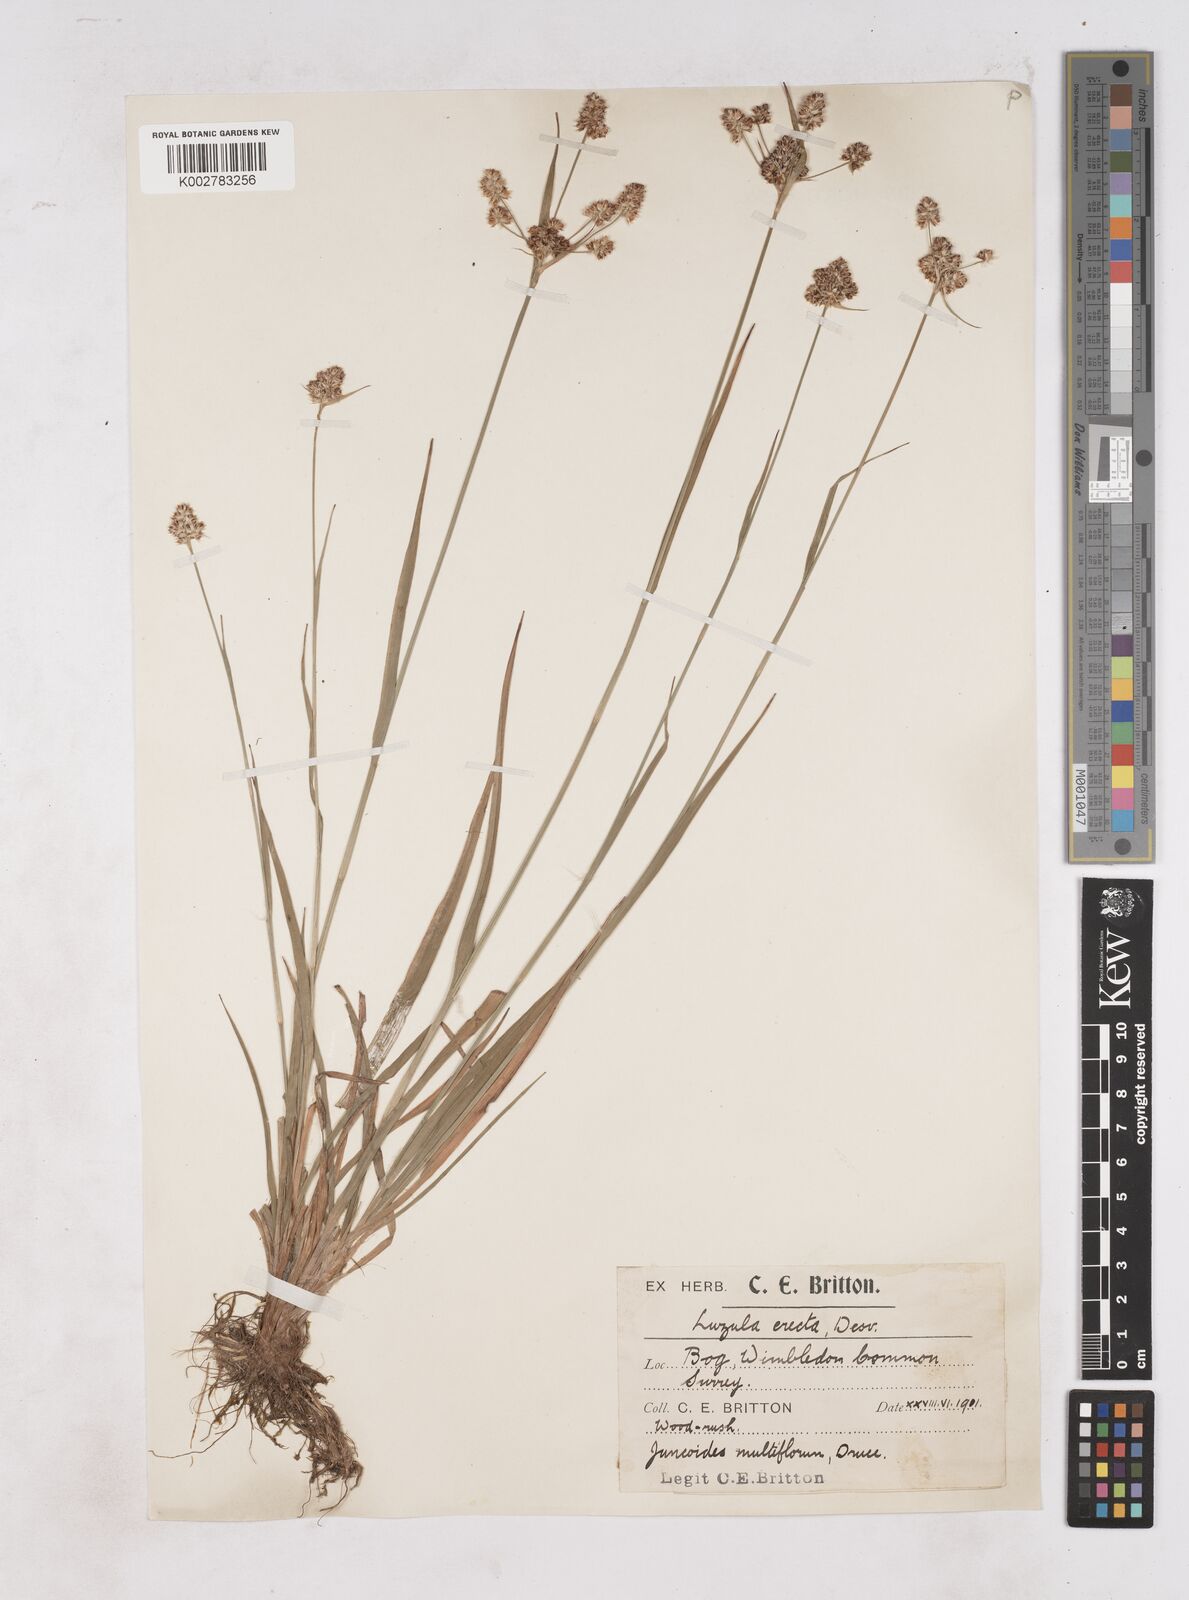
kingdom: Plantae
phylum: Tracheophyta
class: Liliopsida
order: Poales
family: Juncaceae
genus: Luzula
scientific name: Luzula multiflora
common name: Heath wood-rush
